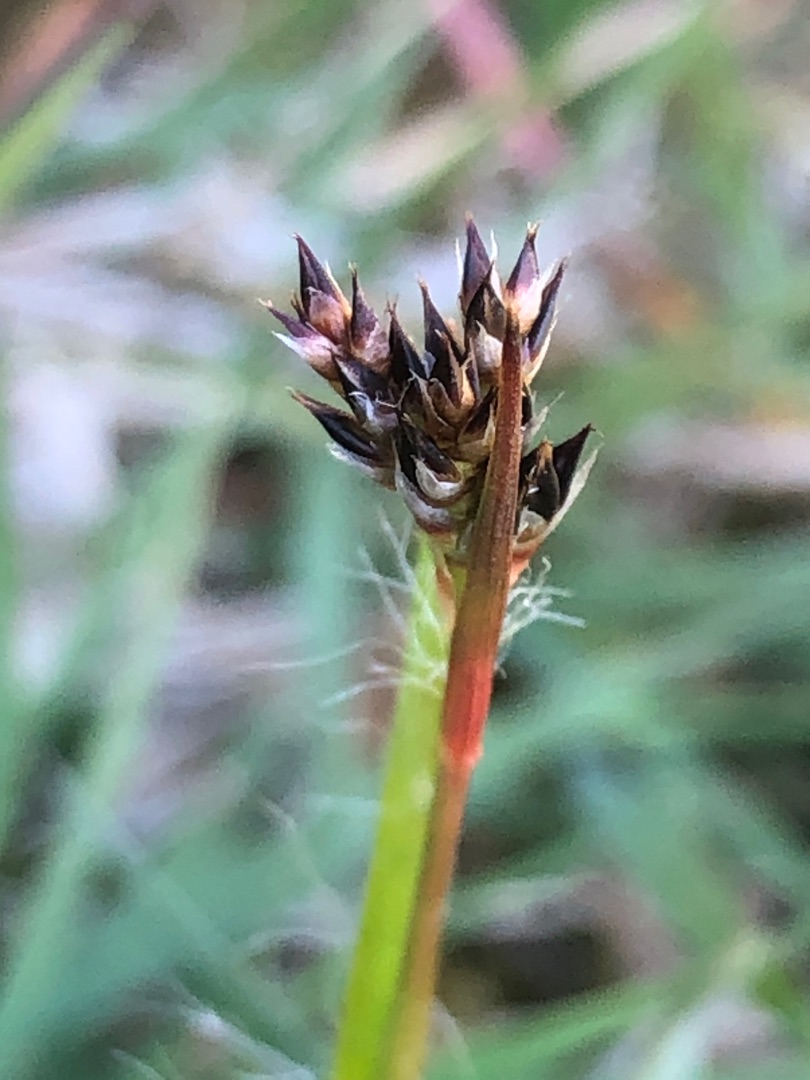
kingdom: Plantae
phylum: Tracheophyta
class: Liliopsida
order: Poales
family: Juncaceae
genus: Luzula
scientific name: Luzula campestris
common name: Mark-frytle
